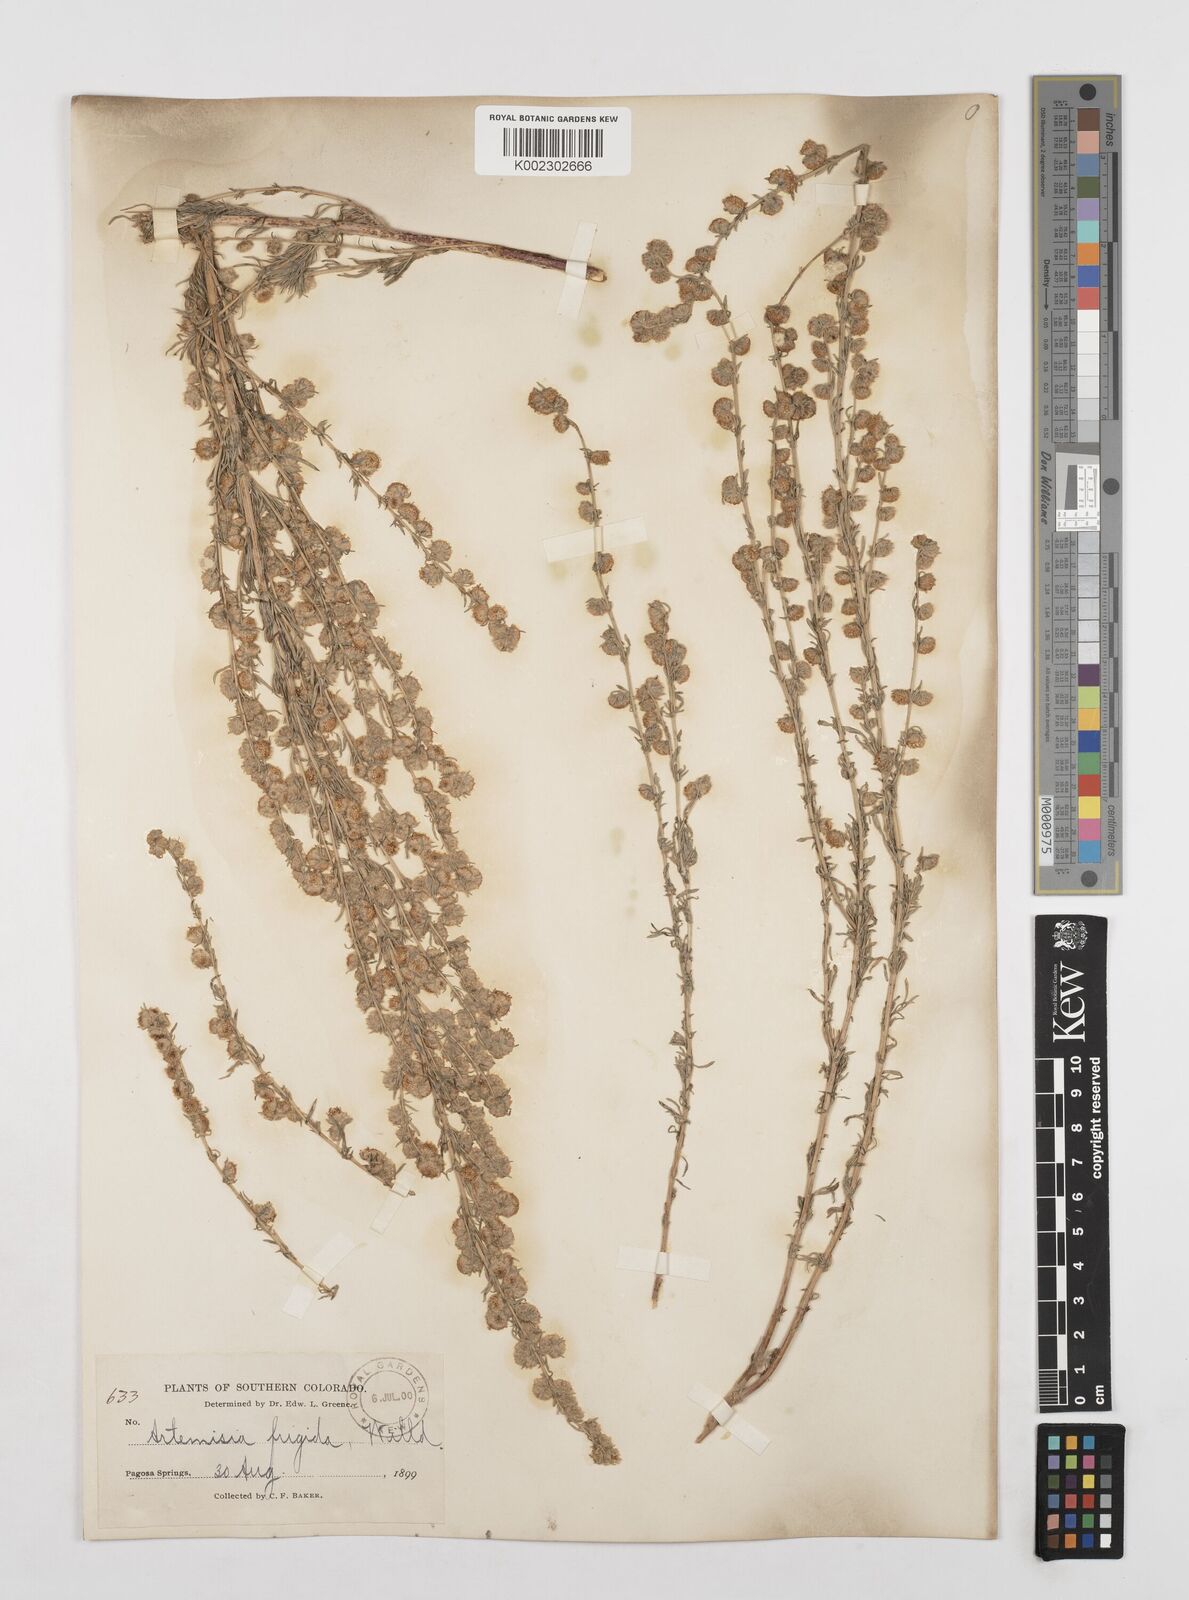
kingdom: Plantae
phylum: Tracheophyta
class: Magnoliopsida
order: Asterales
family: Asteraceae
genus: Artemisia
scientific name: Artemisia frigida
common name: Prairie sagewort
